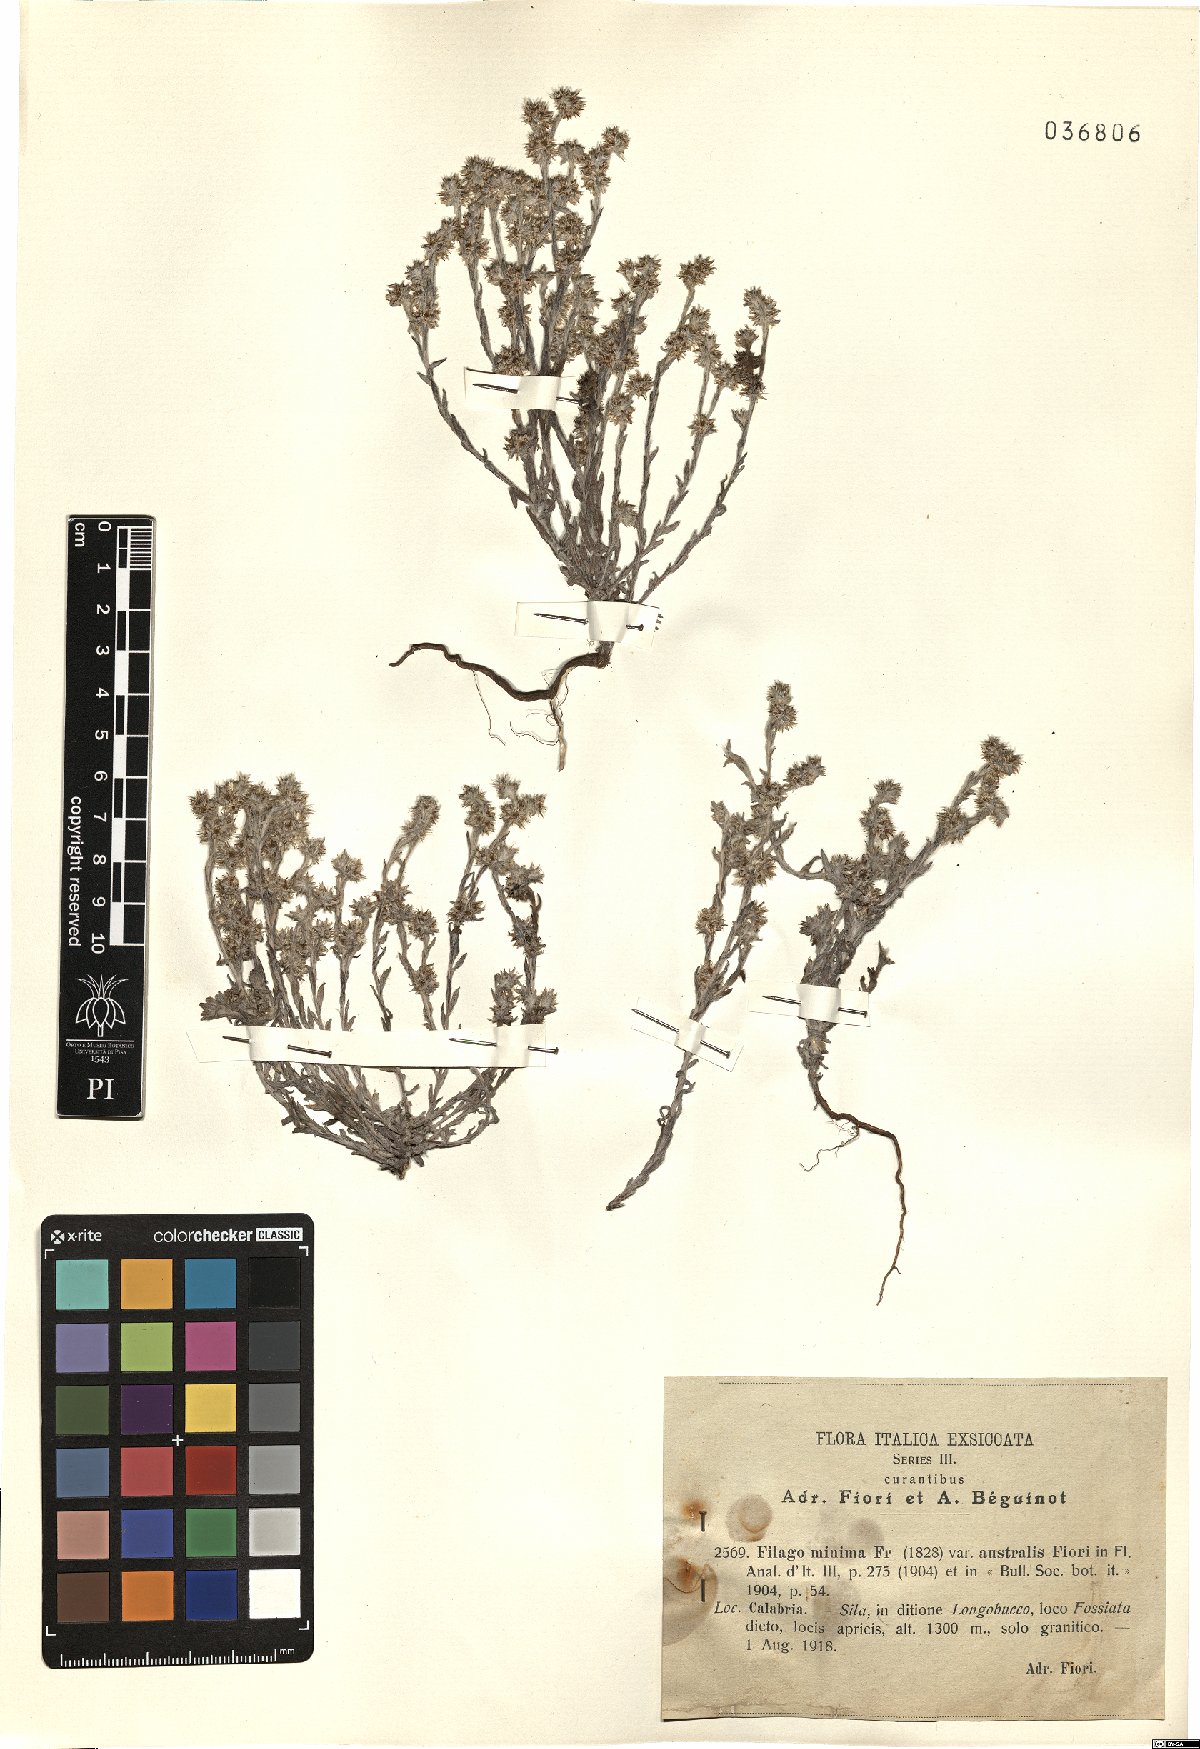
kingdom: Plantae
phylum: Tracheophyta
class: Magnoliopsida
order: Asterales
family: Asteraceae
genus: Logfia
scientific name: Logfia minima
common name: Little cottonrose
